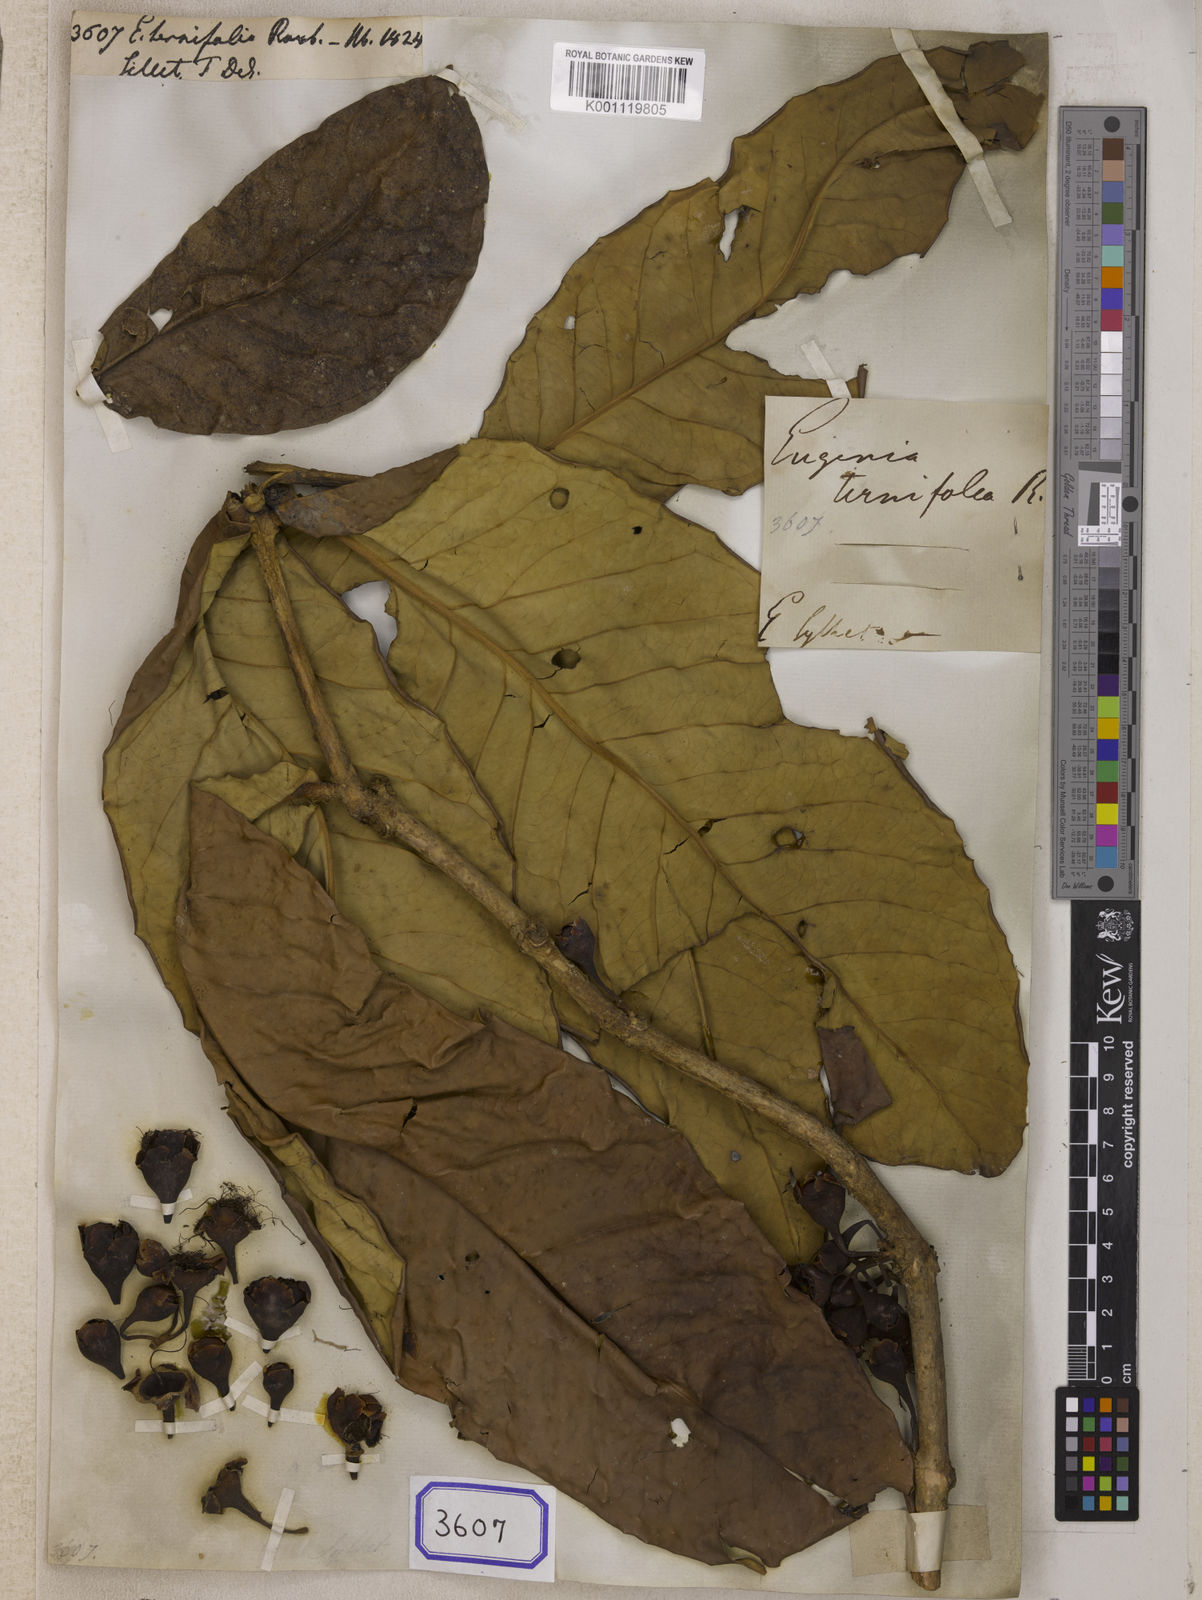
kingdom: Plantae
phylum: Tracheophyta
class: Magnoliopsida
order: Myrtales
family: Myrtaceae
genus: Syzygium
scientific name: Syzygium formosum
